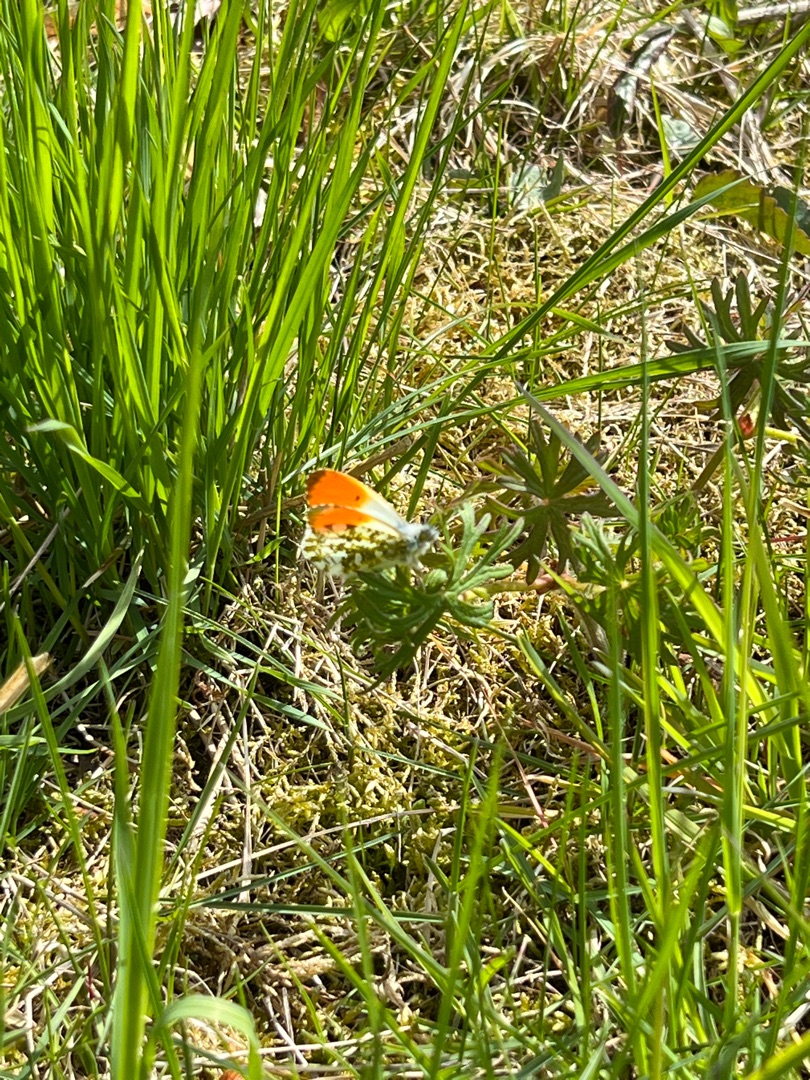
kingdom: Animalia
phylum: Arthropoda
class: Insecta
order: Lepidoptera
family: Pieridae
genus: Anthocharis
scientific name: Anthocharis cardamines
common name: Aurora
